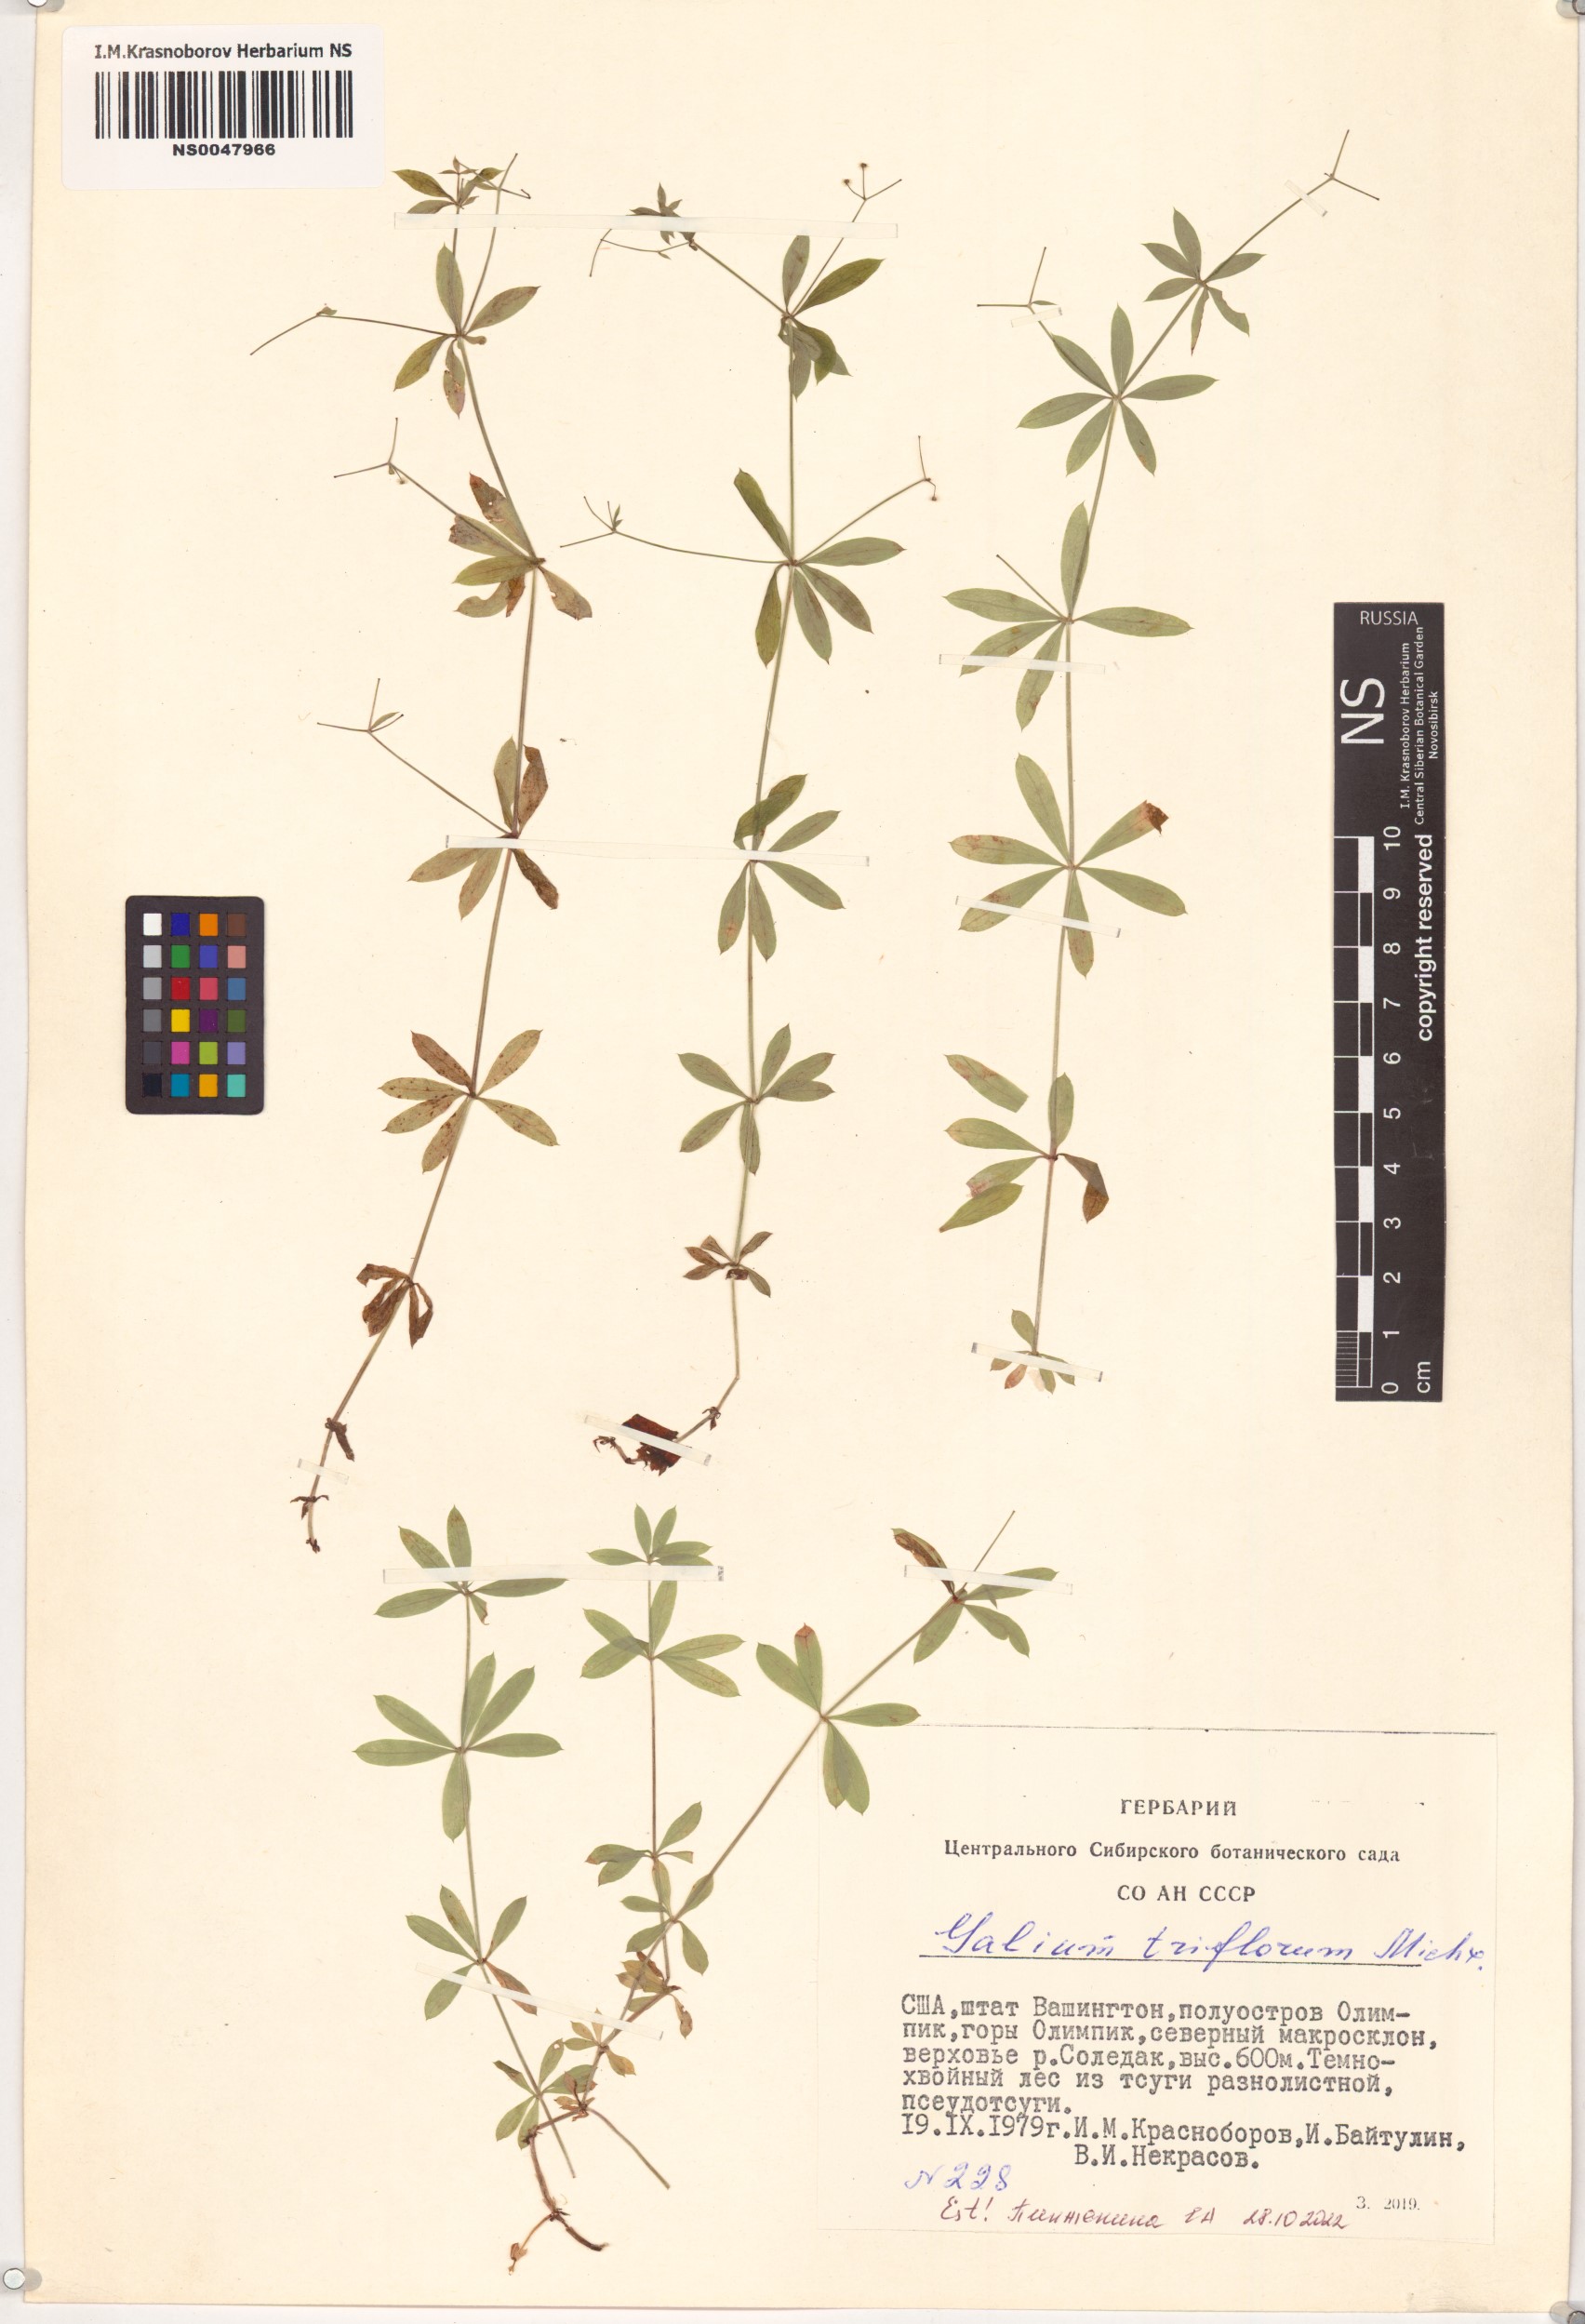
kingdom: Plantae
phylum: Tracheophyta
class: Magnoliopsida
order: Gentianales
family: Rubiaceae
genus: Galium
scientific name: Galium triflorum
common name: Fragrant bedstraw
